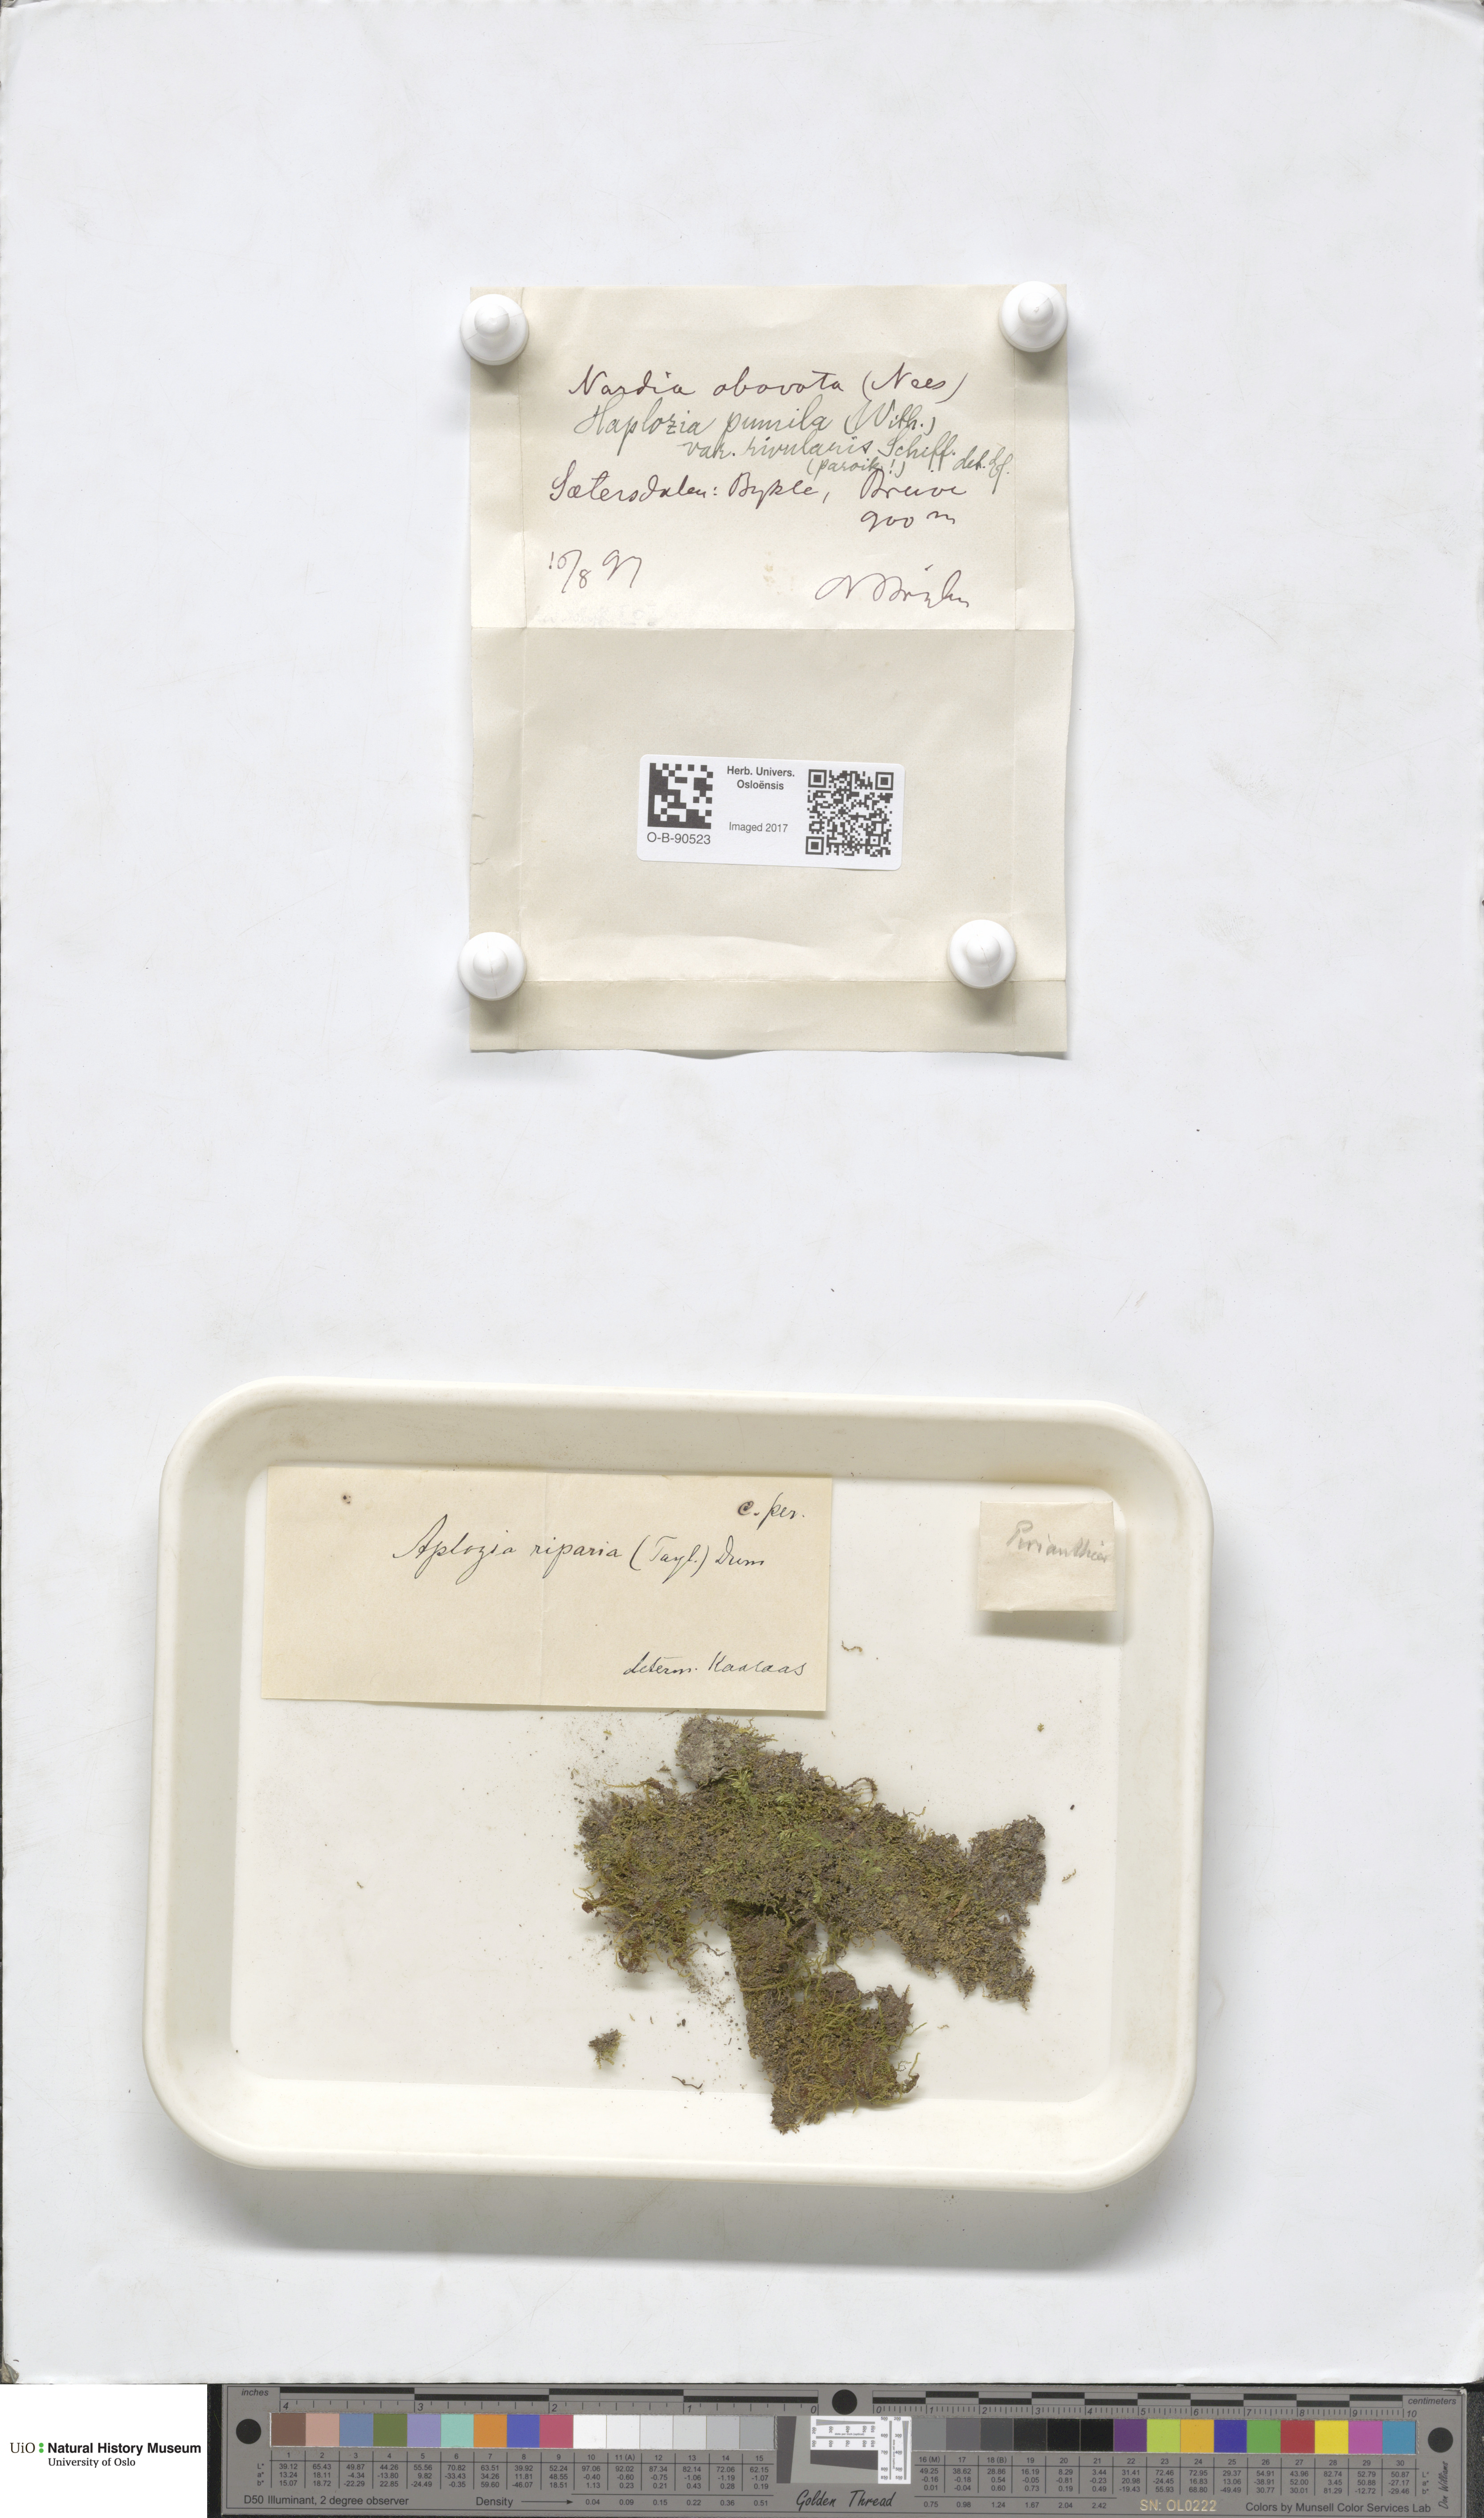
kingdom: Plantae
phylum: Marchantiophyta
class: Jungermanniopsida
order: Jungermanniales
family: Jungermanniaceae
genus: Jungermannia
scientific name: Jungermannia pumila
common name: Dwarf flapwort
